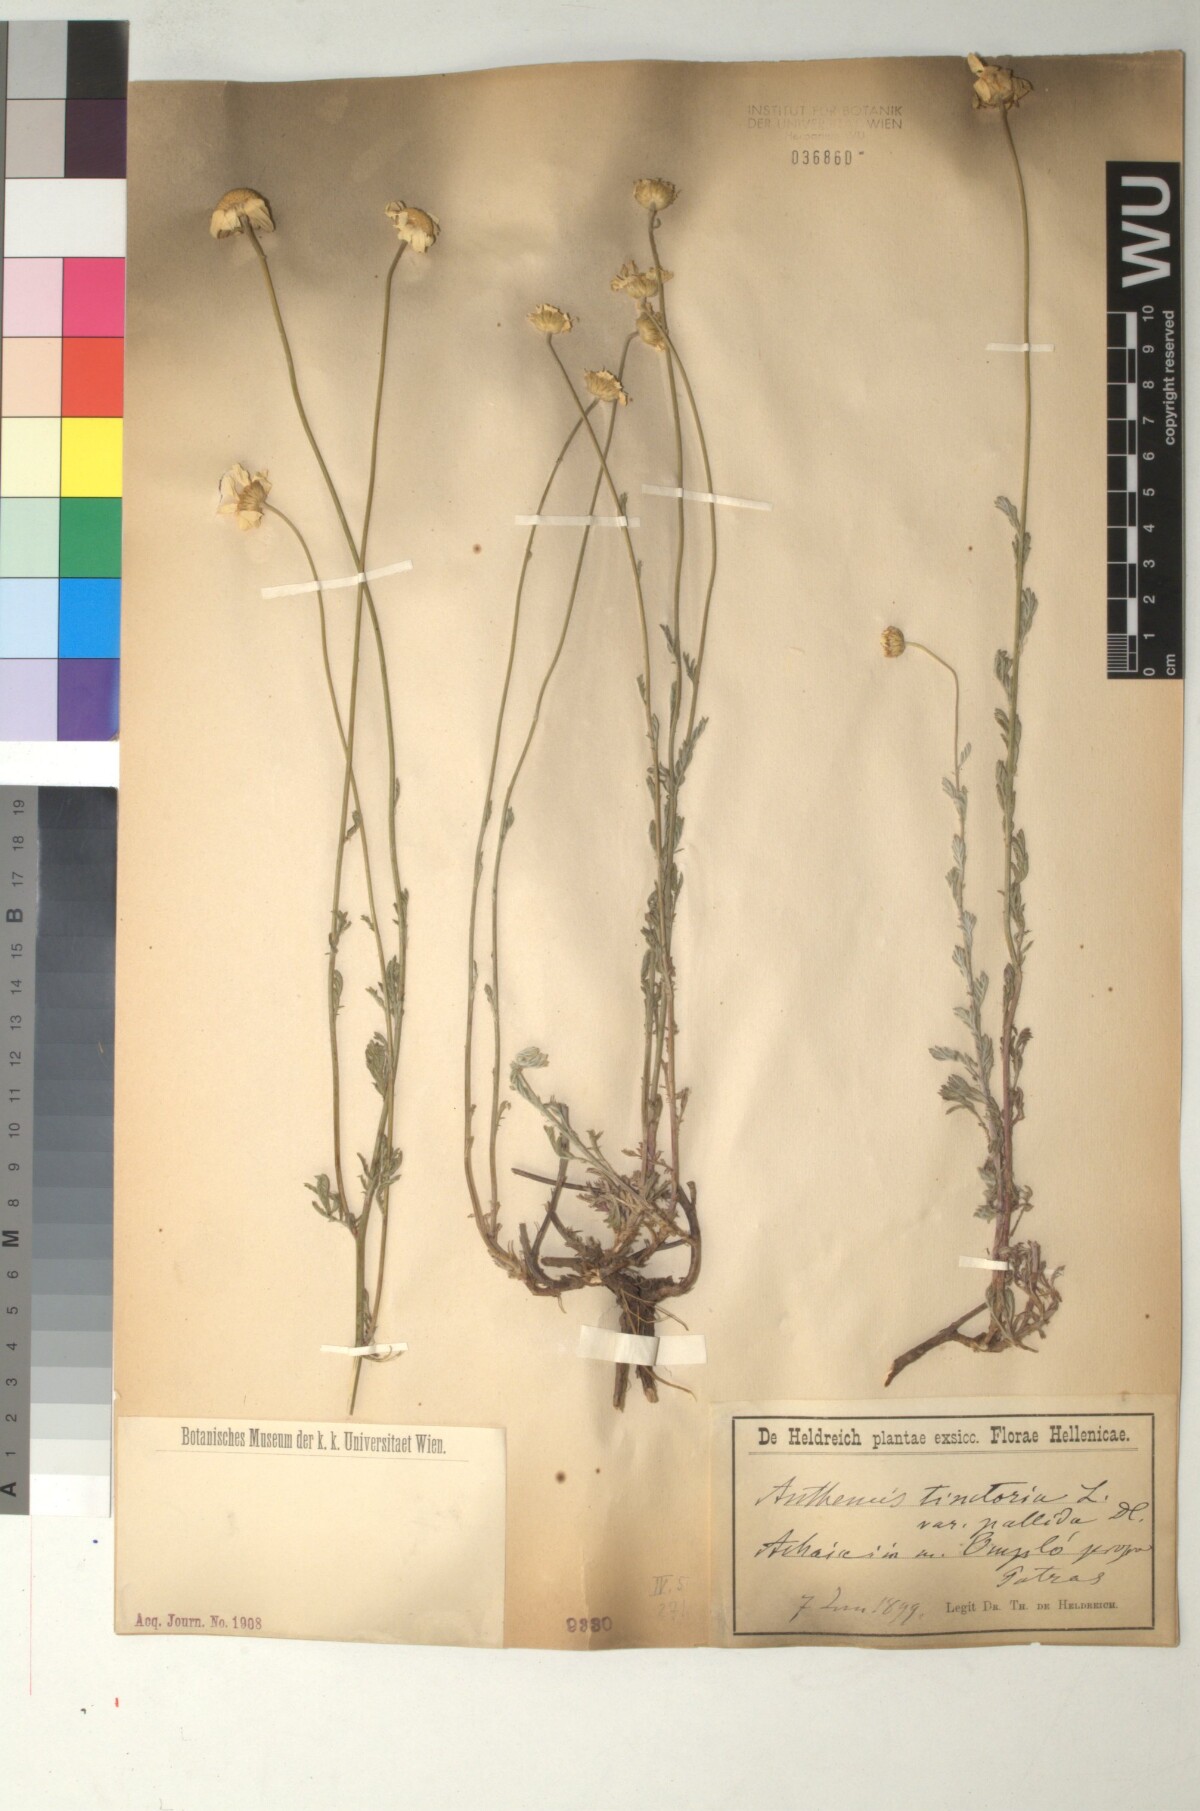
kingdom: Plantae
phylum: Tracheophyta
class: Magnoliopsida
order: Asterales
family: Asteraceae
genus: Cota
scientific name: Cota tinctoria
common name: Golden chamomile
